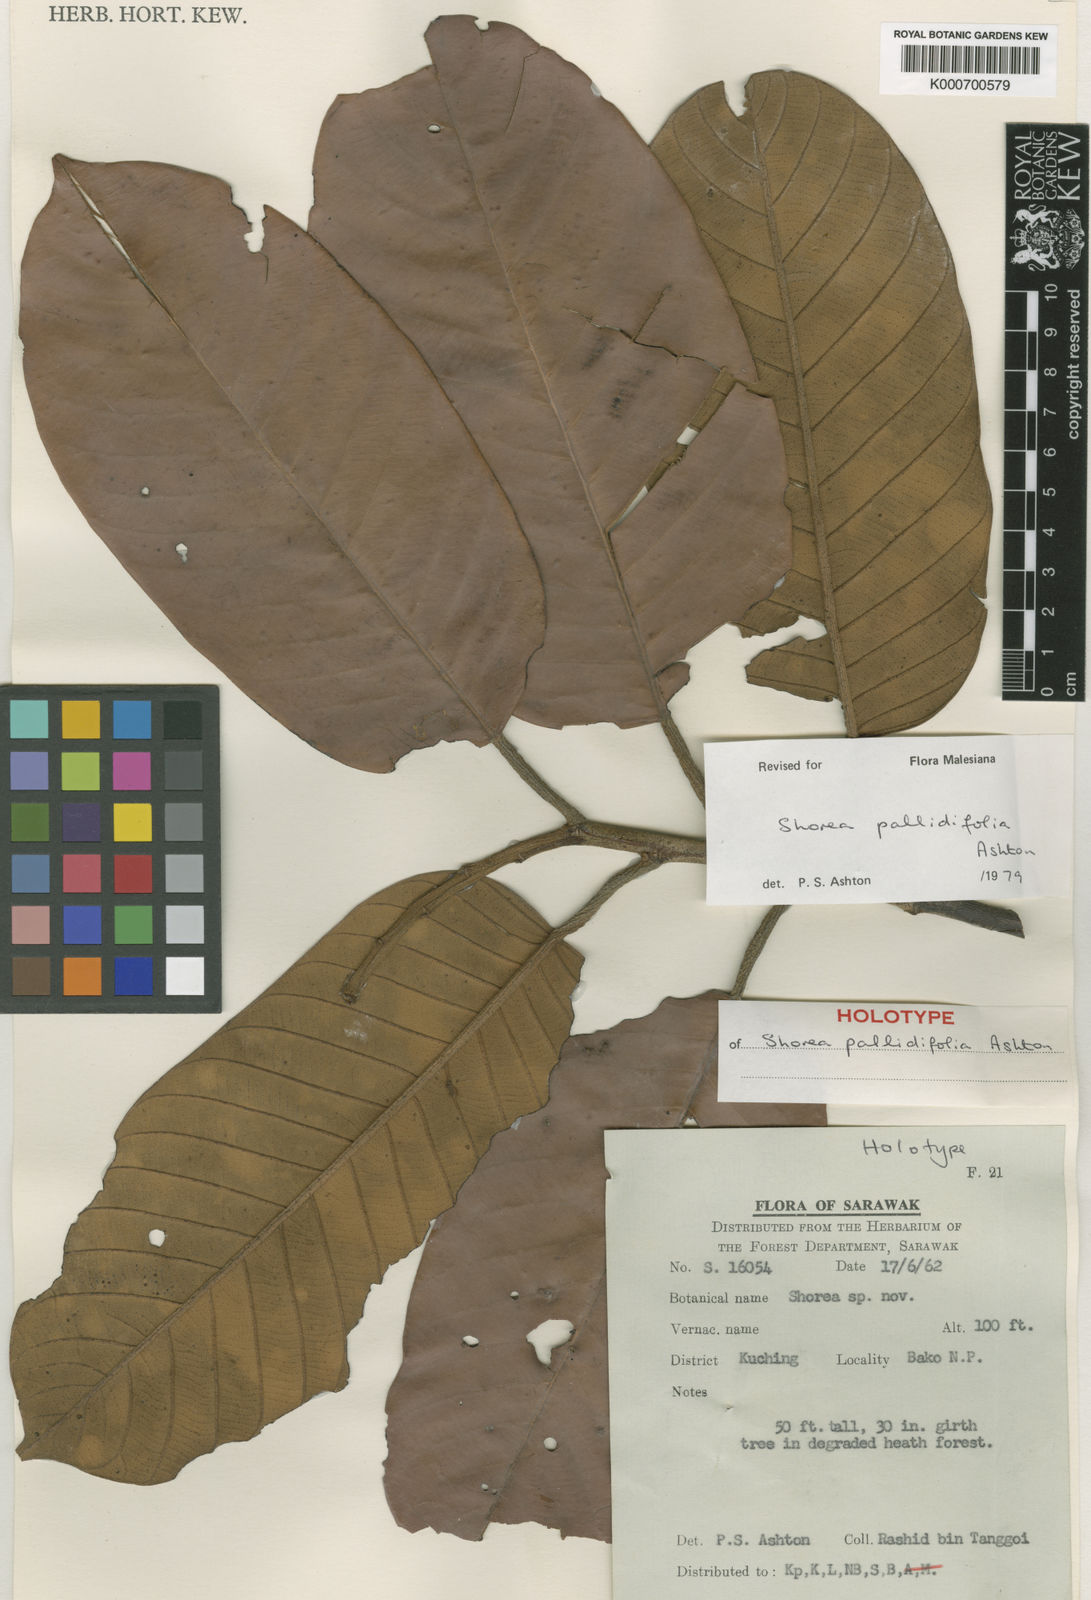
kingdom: Plantae
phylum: Tracheophyta
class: Magnoliopsida
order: Malvales
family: Dipterocarpaceae
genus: Shorea
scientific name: Shorea pallidifolia
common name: Red meranti
